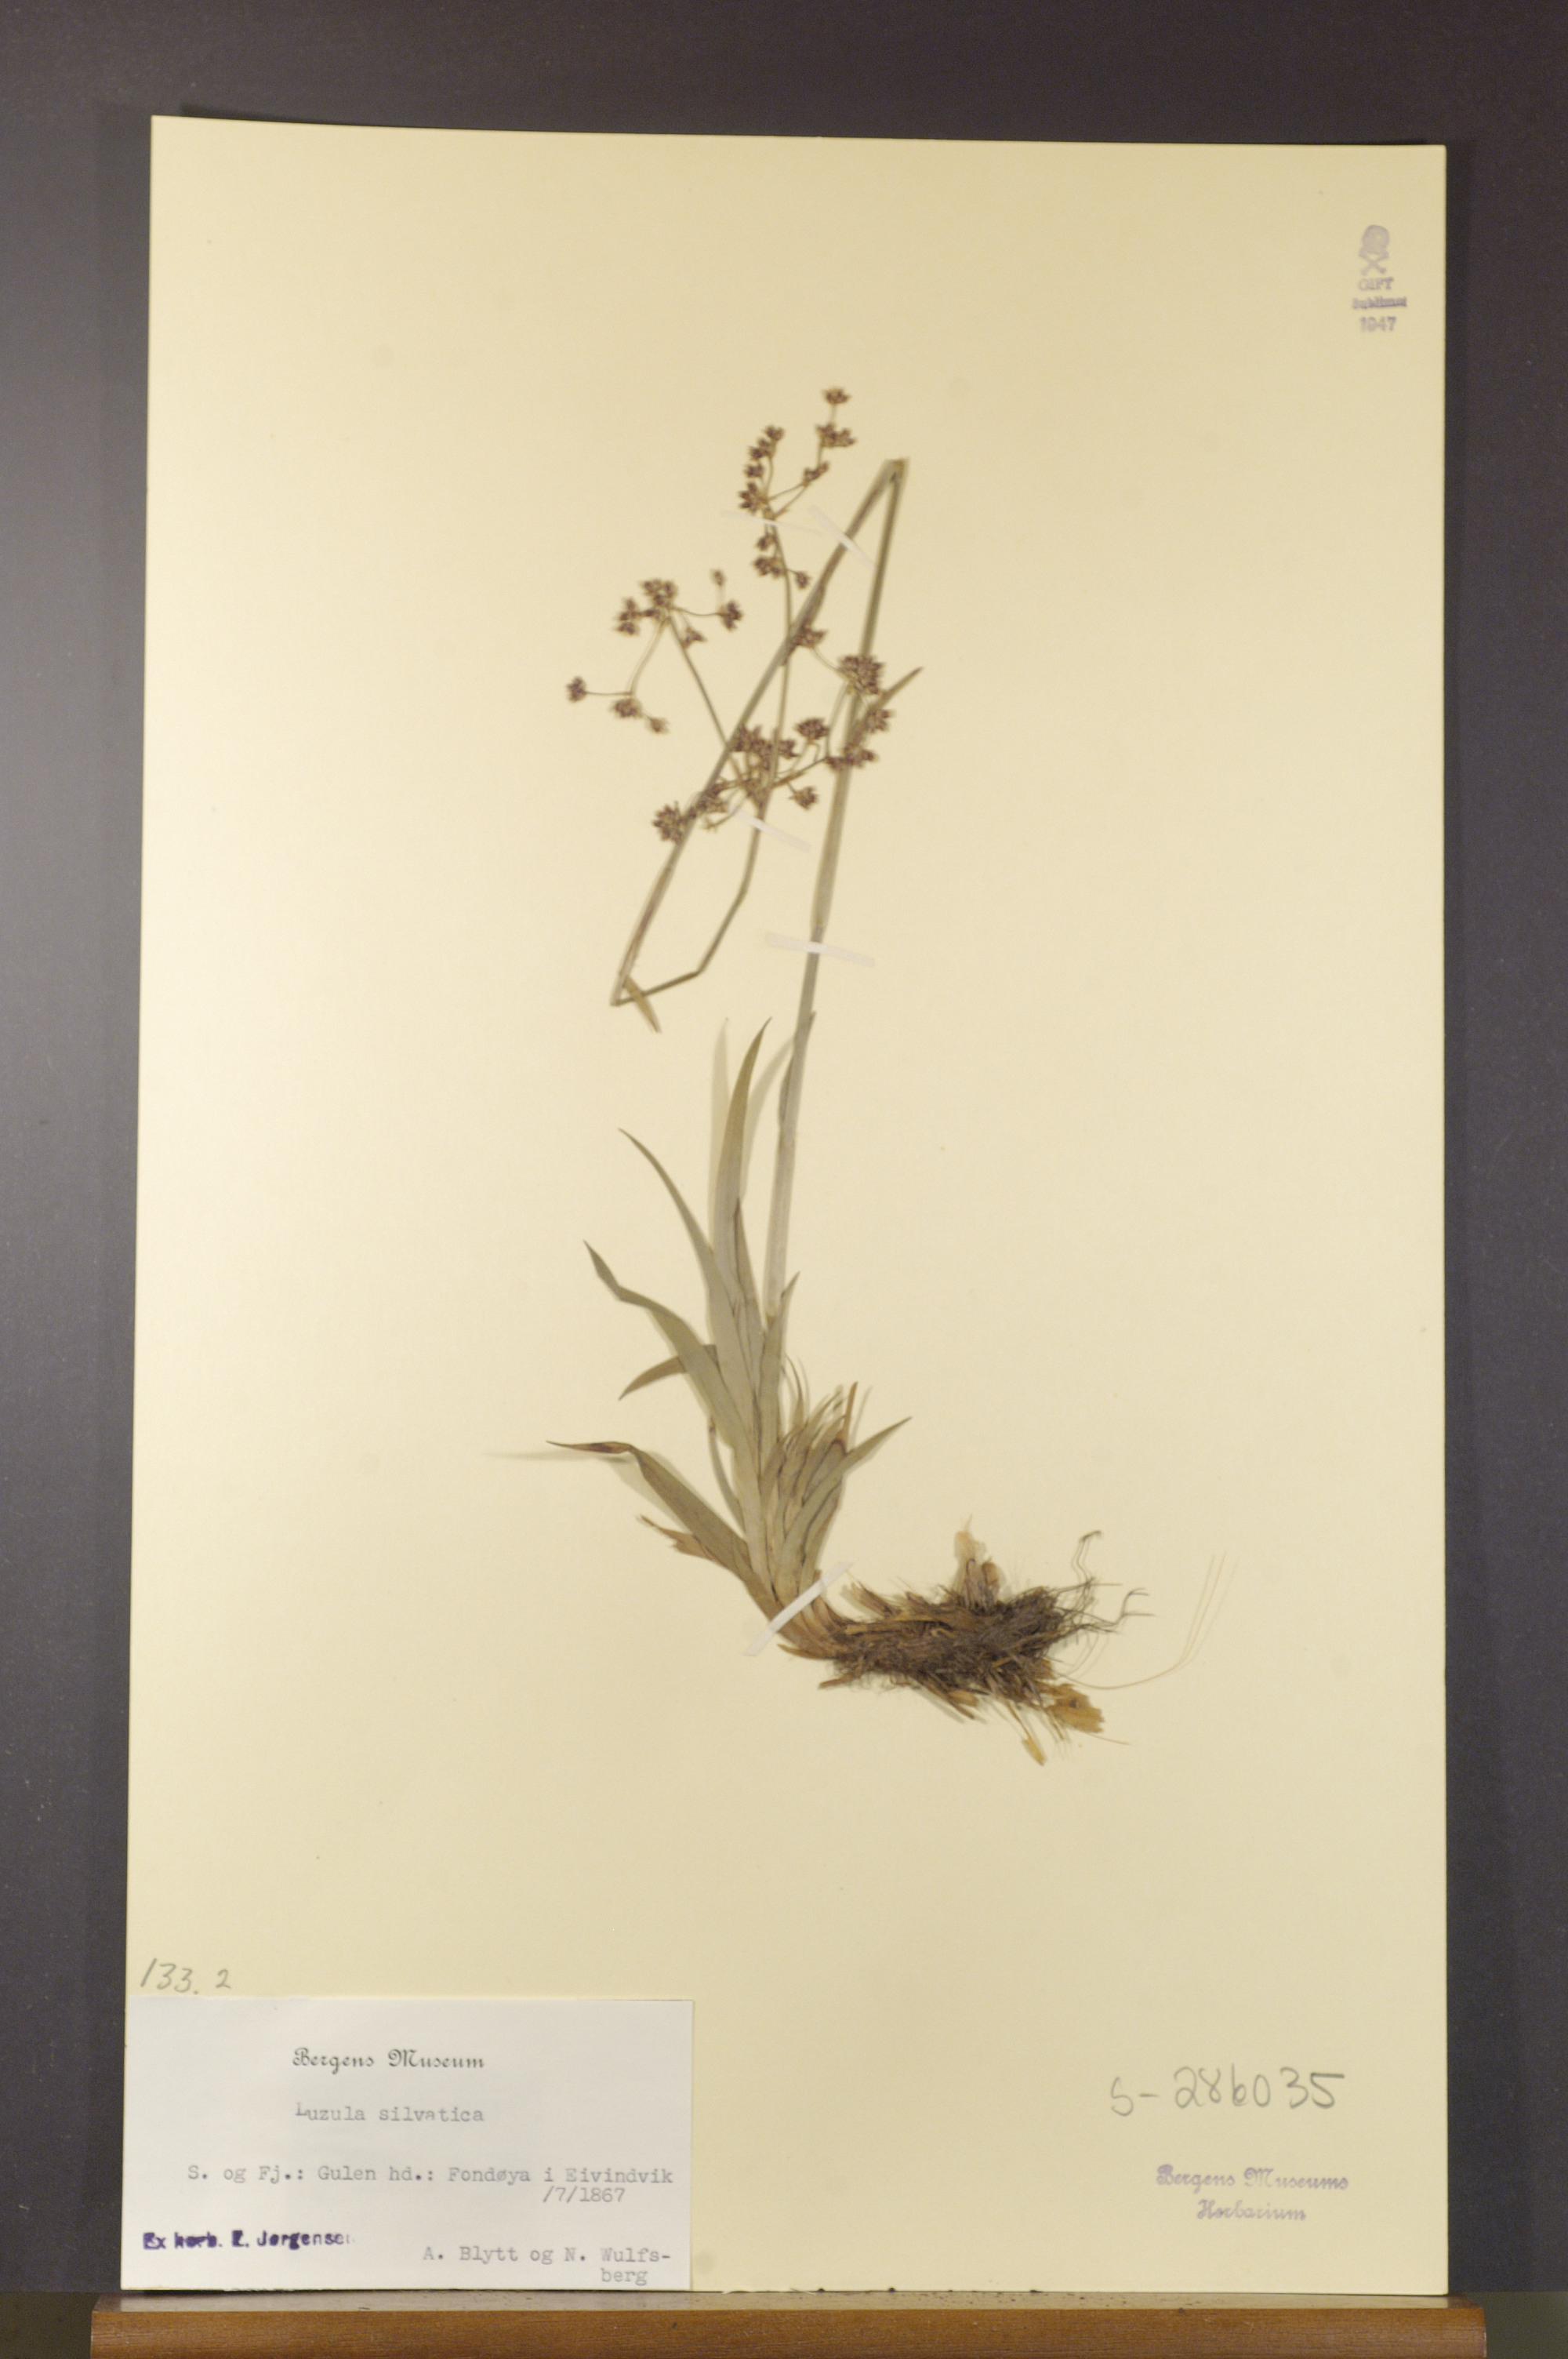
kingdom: Plantae
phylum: Tracheophyta
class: Liliopsida
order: Poales
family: Juncaceae
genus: Luzula
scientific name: Luzula sylvatica
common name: Great wood-rush
